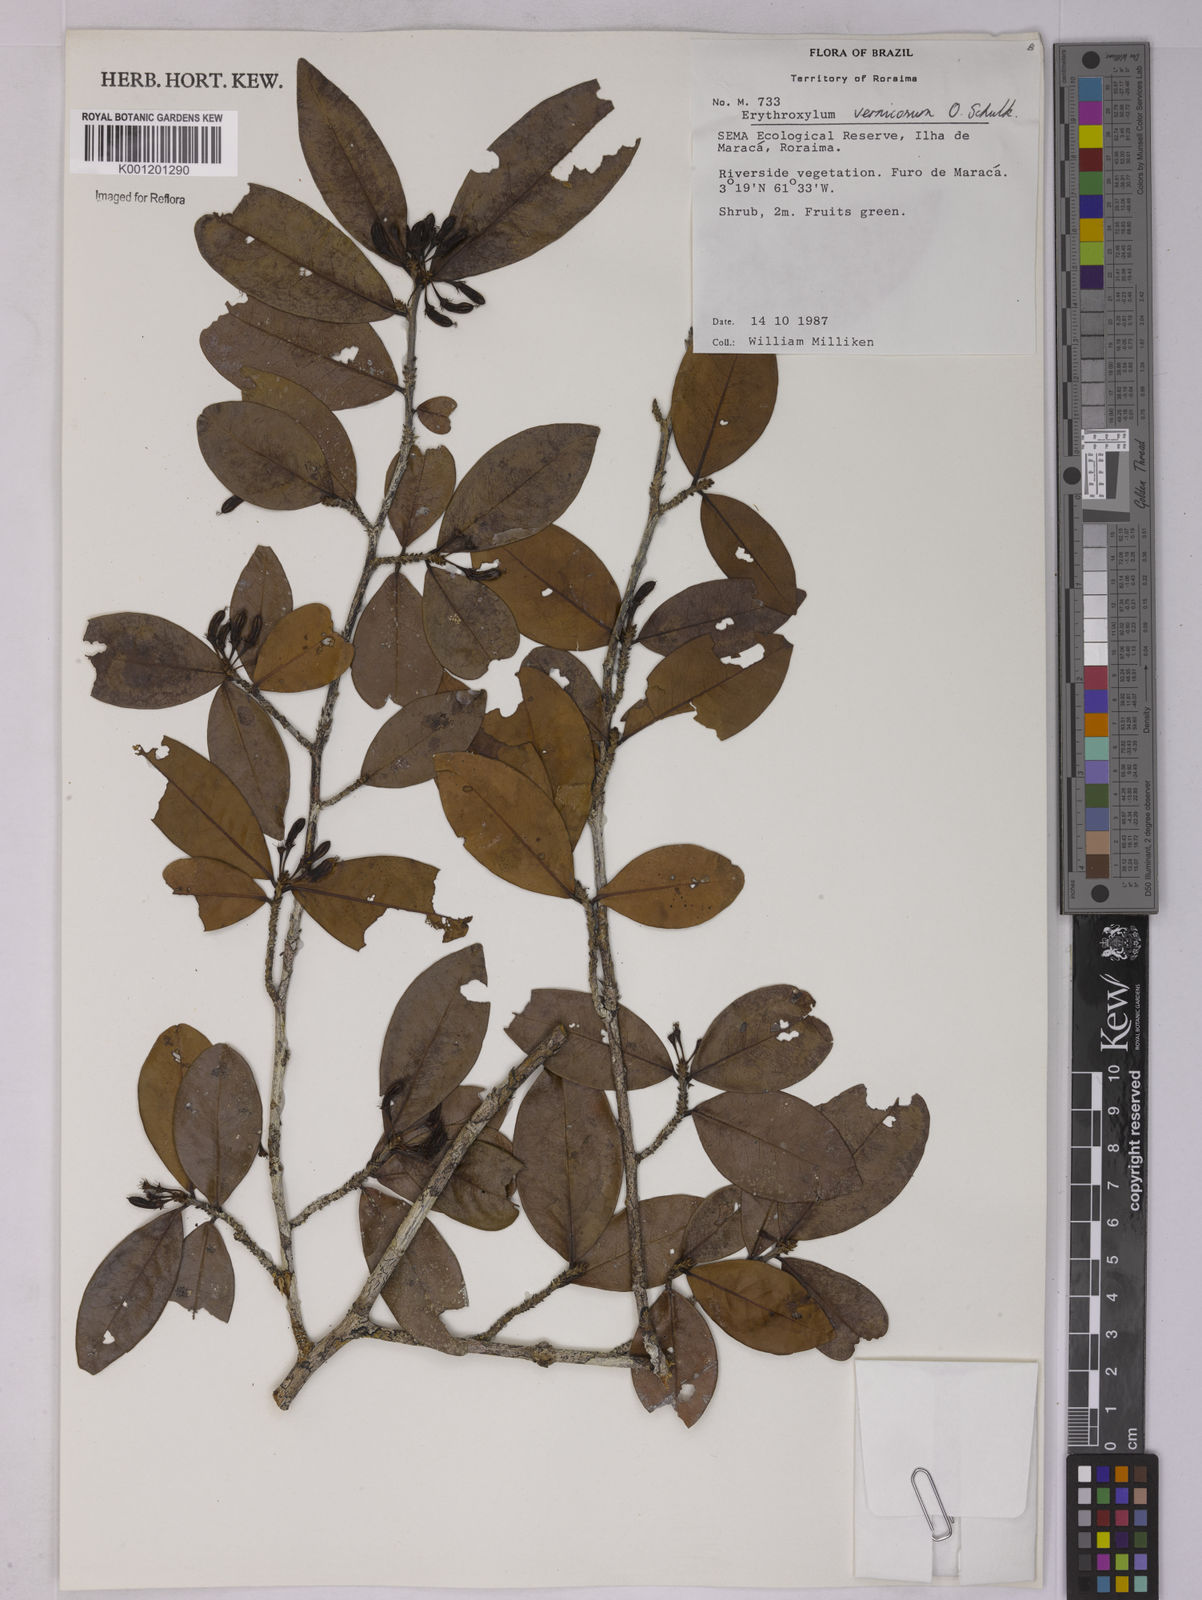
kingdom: Plantae
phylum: Tracheophyta
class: Magnoliopsida
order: Malpighiales
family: Erythroxylaceae
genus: Erythroxylum
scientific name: Erythroxylum vernicosum
